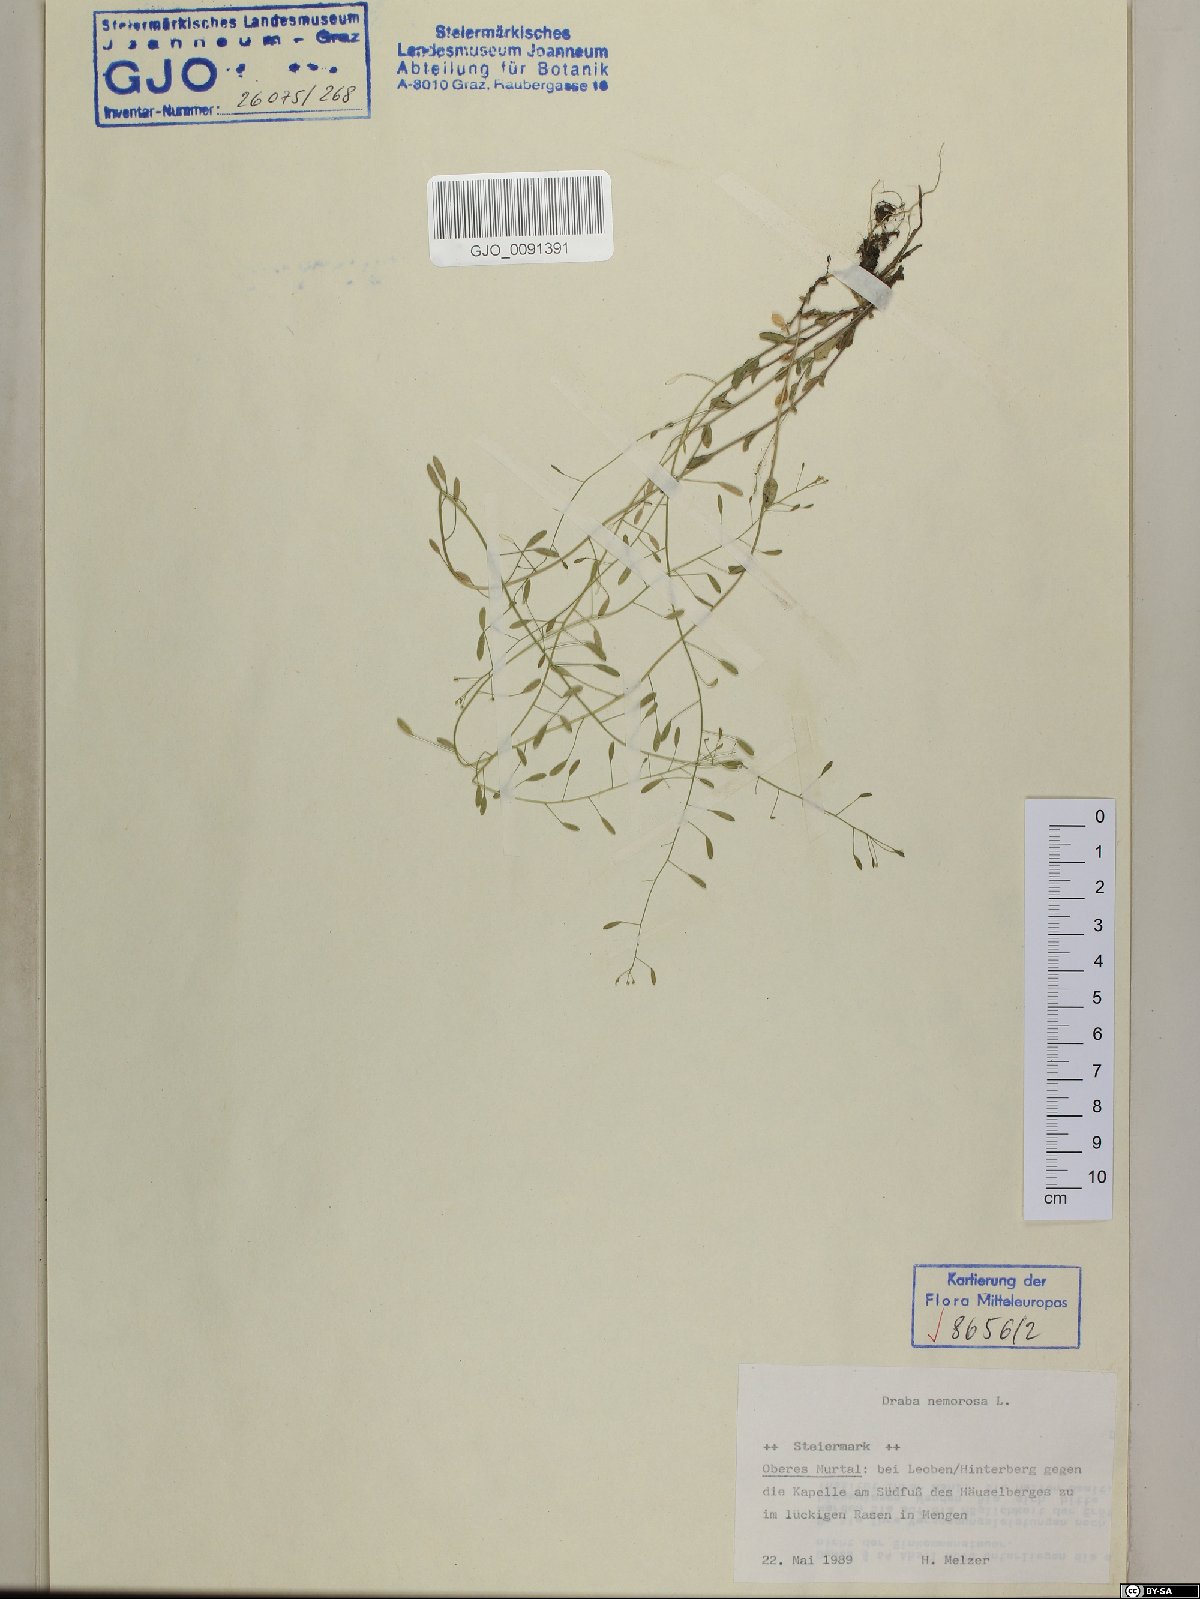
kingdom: Plantae
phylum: Tracheophyta
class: Magnoliopsida
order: Brassicales
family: Brassicaceae
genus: Draba
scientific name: Draba nemorosa
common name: Wood whitlow-grass
